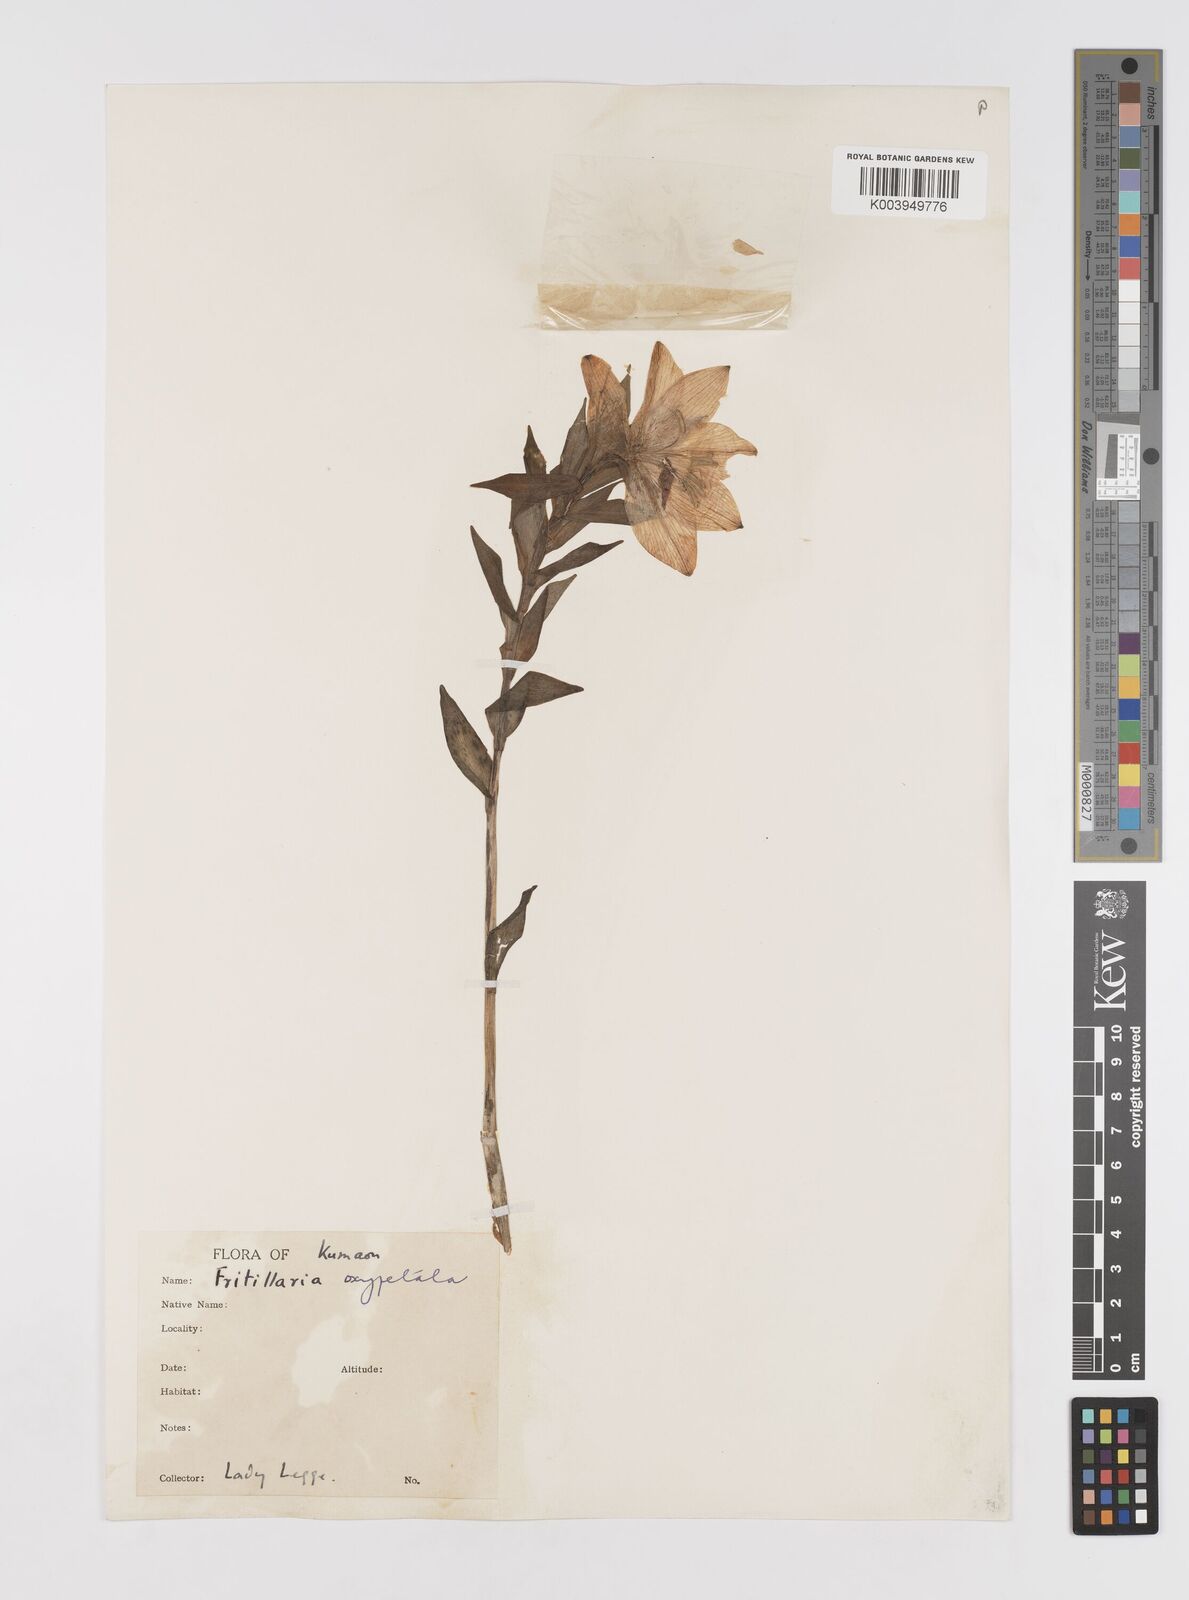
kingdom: Plantae
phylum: Tracheophyta
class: Liliopsida
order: Liliales
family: Liliaceae
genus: Lilium
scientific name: Lilium oxypetalum
